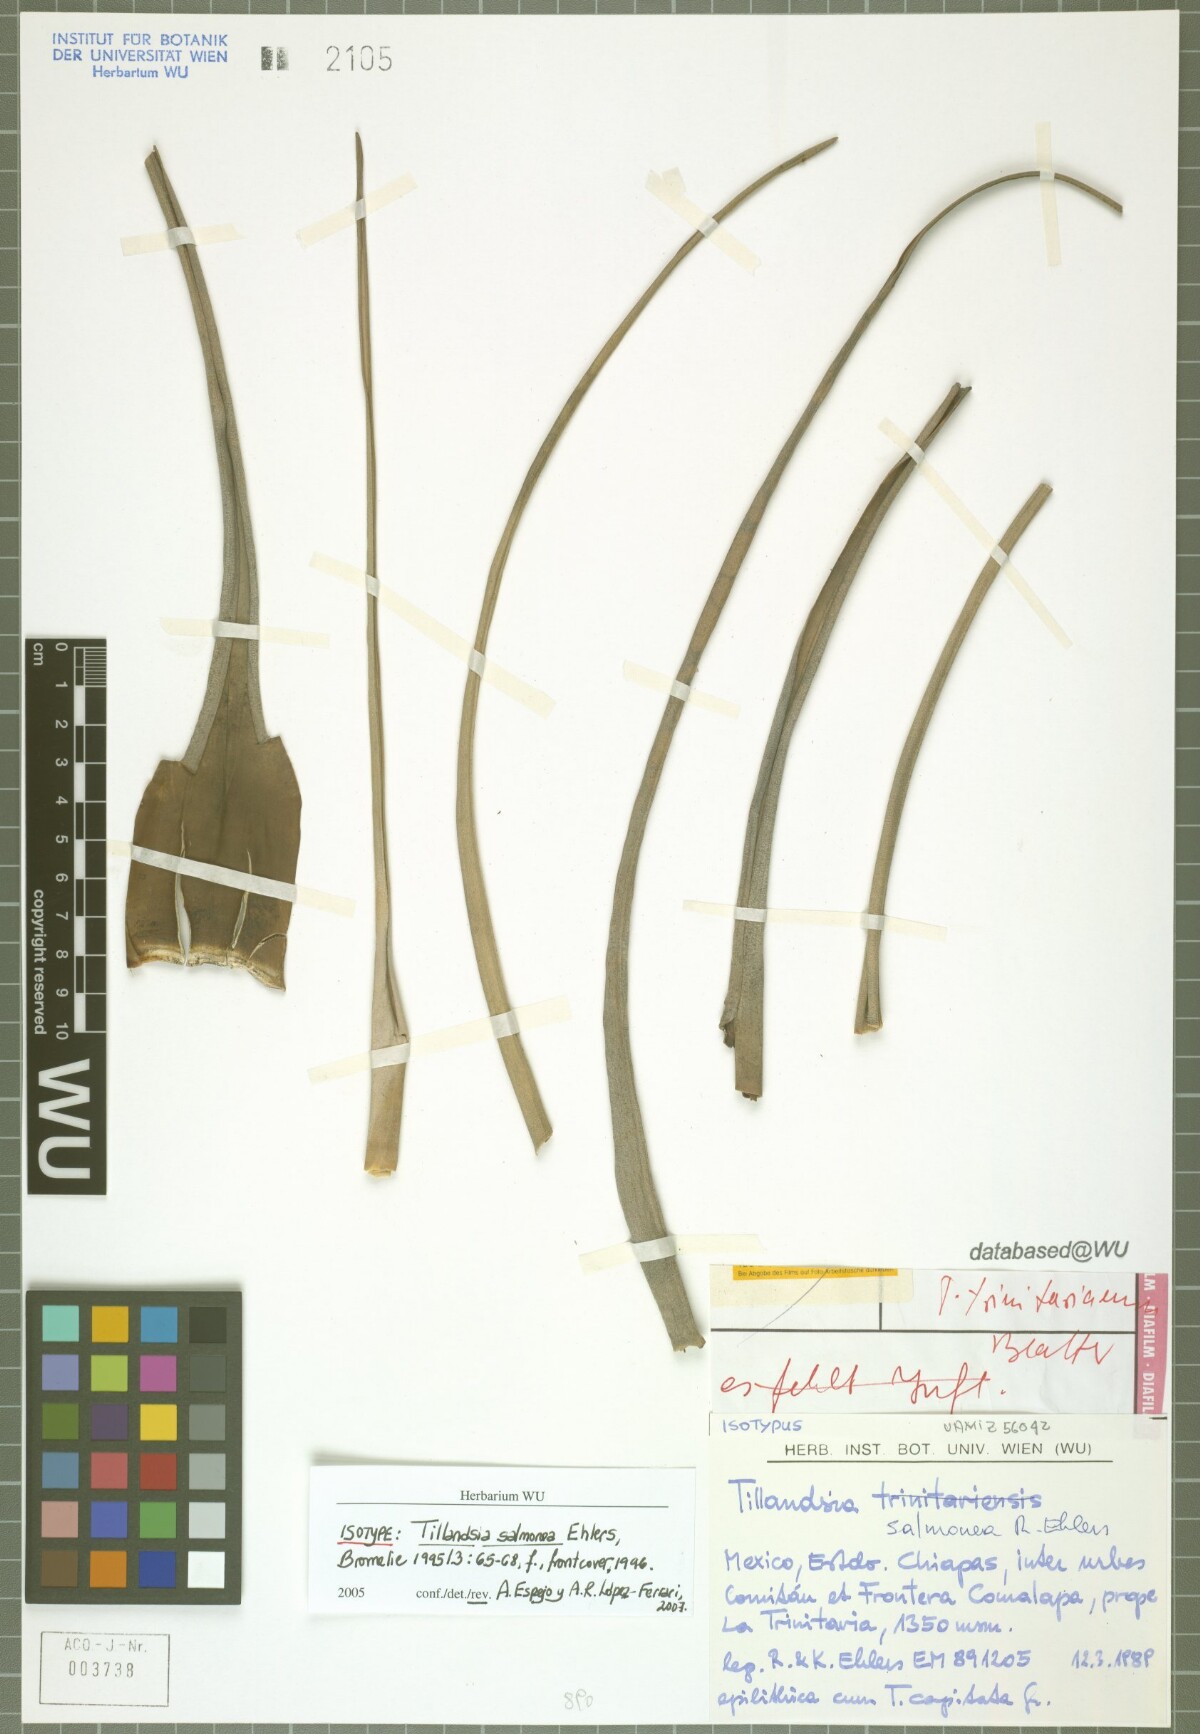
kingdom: Plantae
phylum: Tracheophyta
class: Liliopsida
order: Poales
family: Bromeliaceae
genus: Tillandsia
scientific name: Tillandsia salmonea
